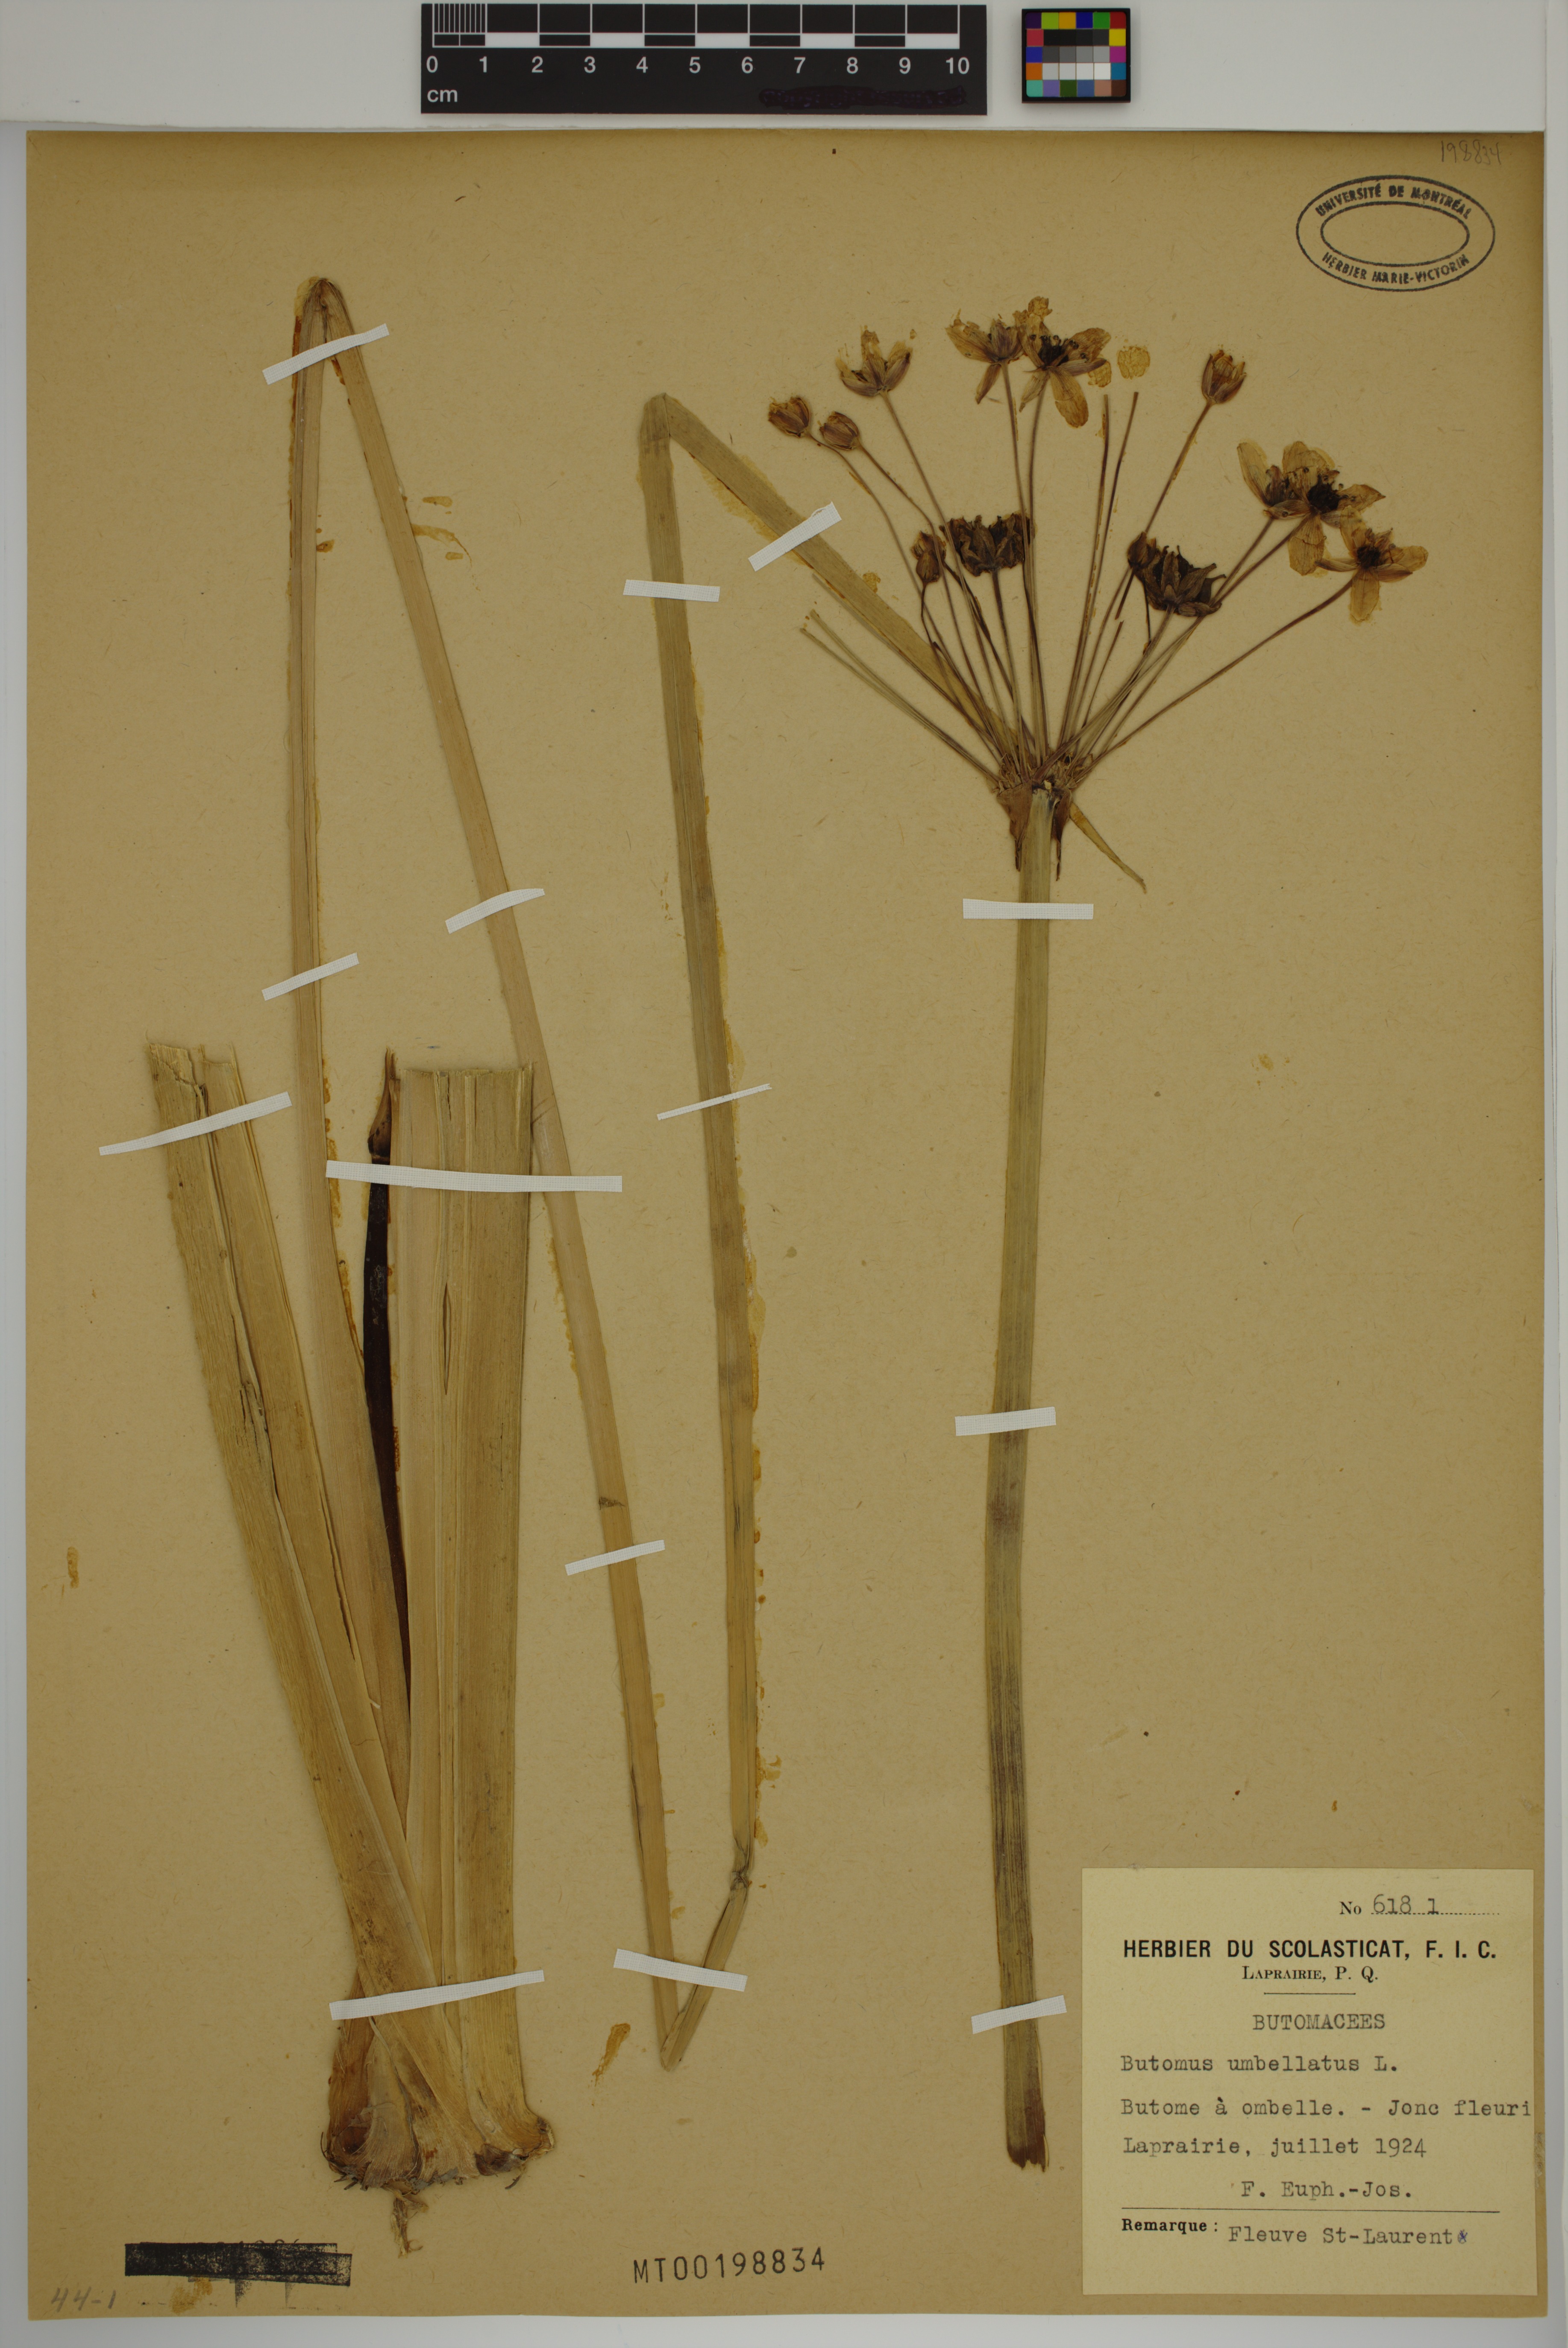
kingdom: Plantae
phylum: Tracheophyta
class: Liliopsida
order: Alismatales
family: Butomaceae
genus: Butomus
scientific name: Butomus umbellatus
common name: Flowering-rush
